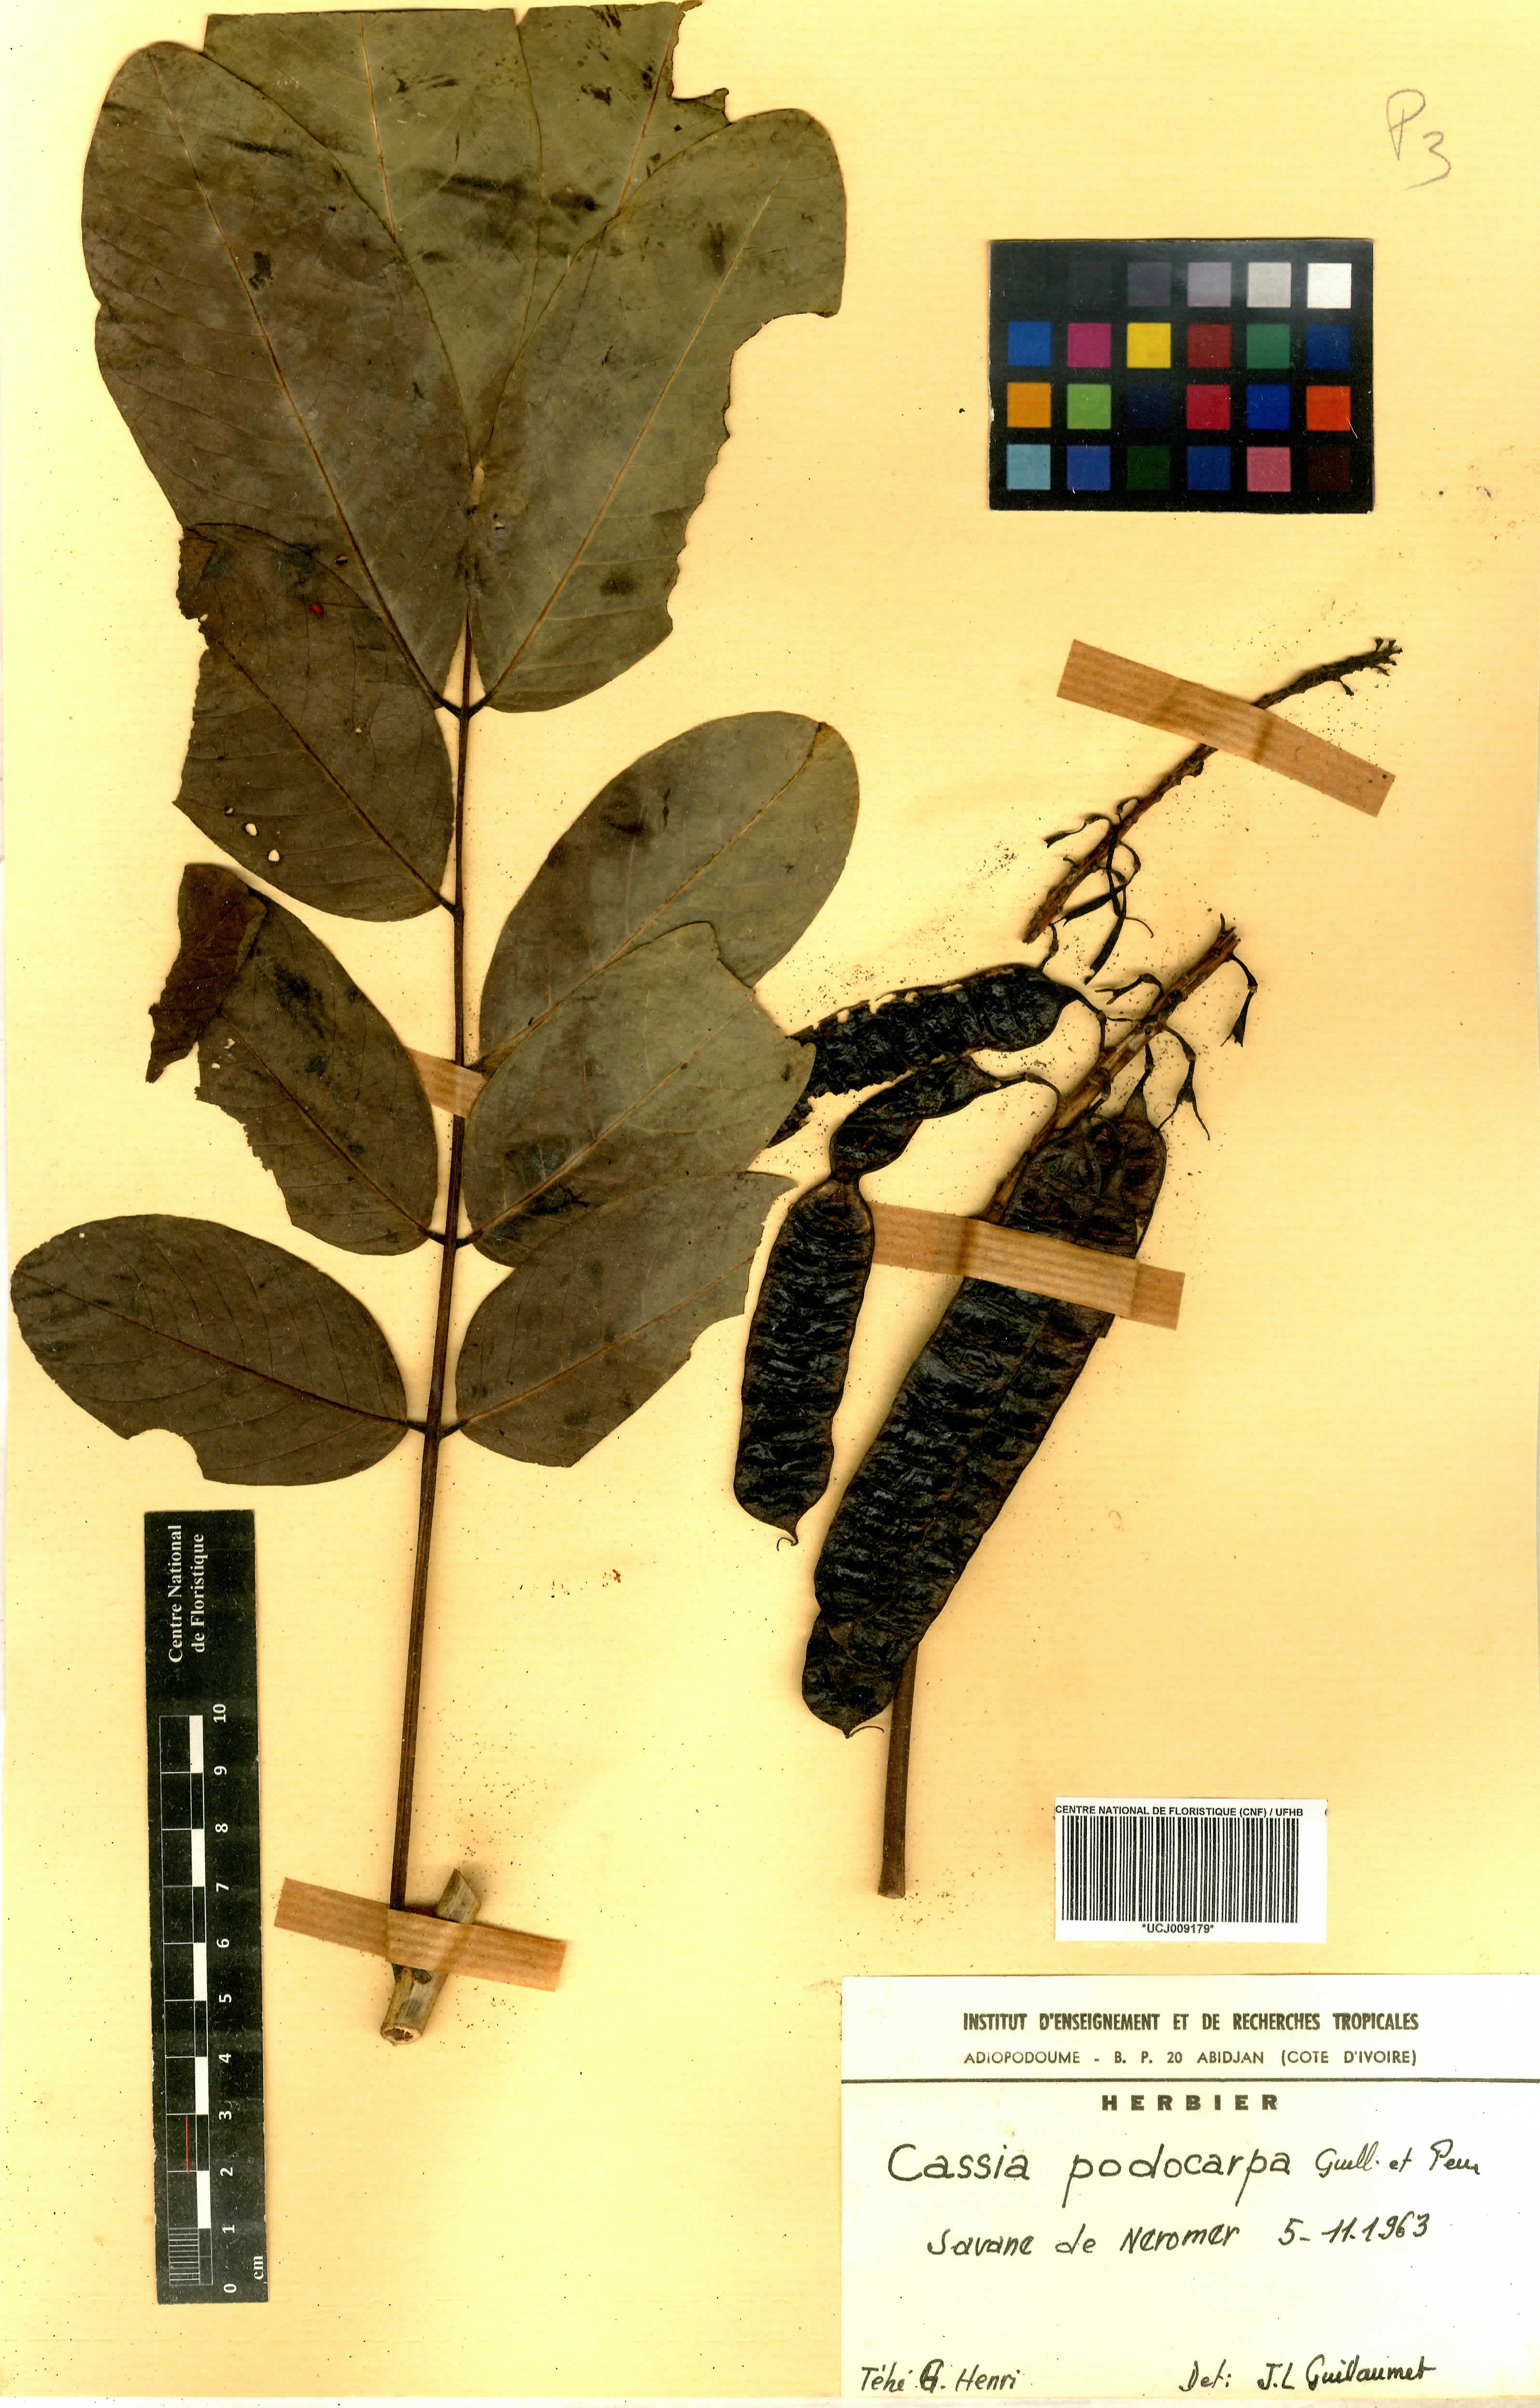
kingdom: Plantae
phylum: Tracheophyta
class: Magnoliopsida
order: Fabales
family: Fabaceae
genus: Senna
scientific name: Senna podocarpa
